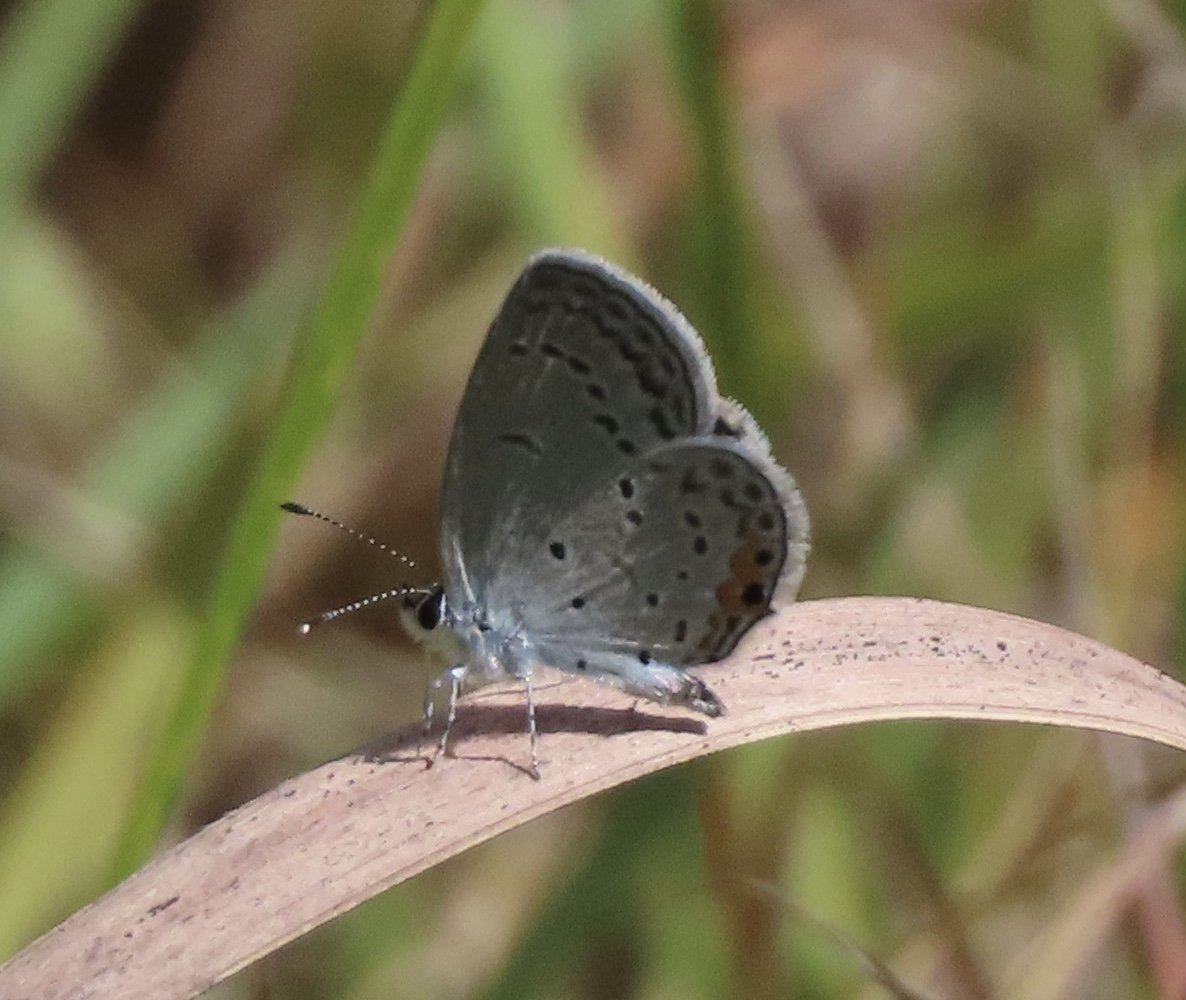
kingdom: Animalia
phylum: Arthropoda
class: Insecta
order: Lepidoptera
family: Lycaenidae
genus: Elkalyce
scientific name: Elkalyce comyntas
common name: Eastern Tailed-Blue
